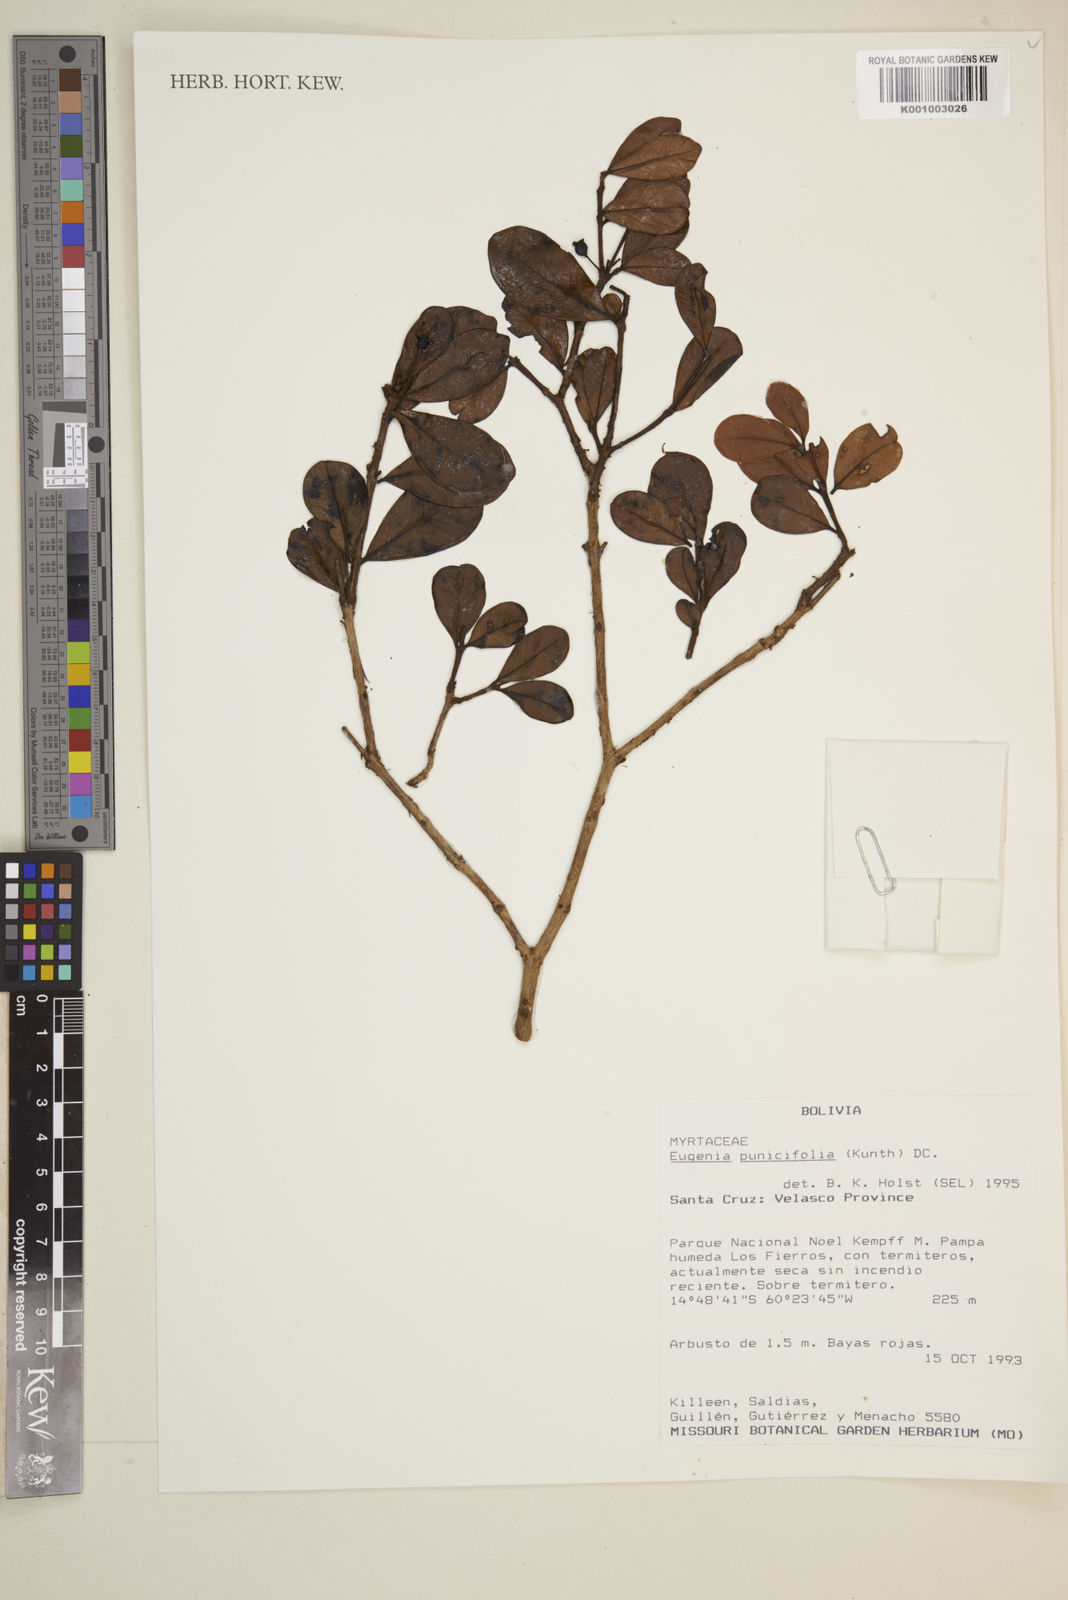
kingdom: Plantae
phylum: Tracheophyta
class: Magnoliopsida
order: Myrtales
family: Myrtaceae
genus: Eugenia
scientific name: Eugenia punicifolia
